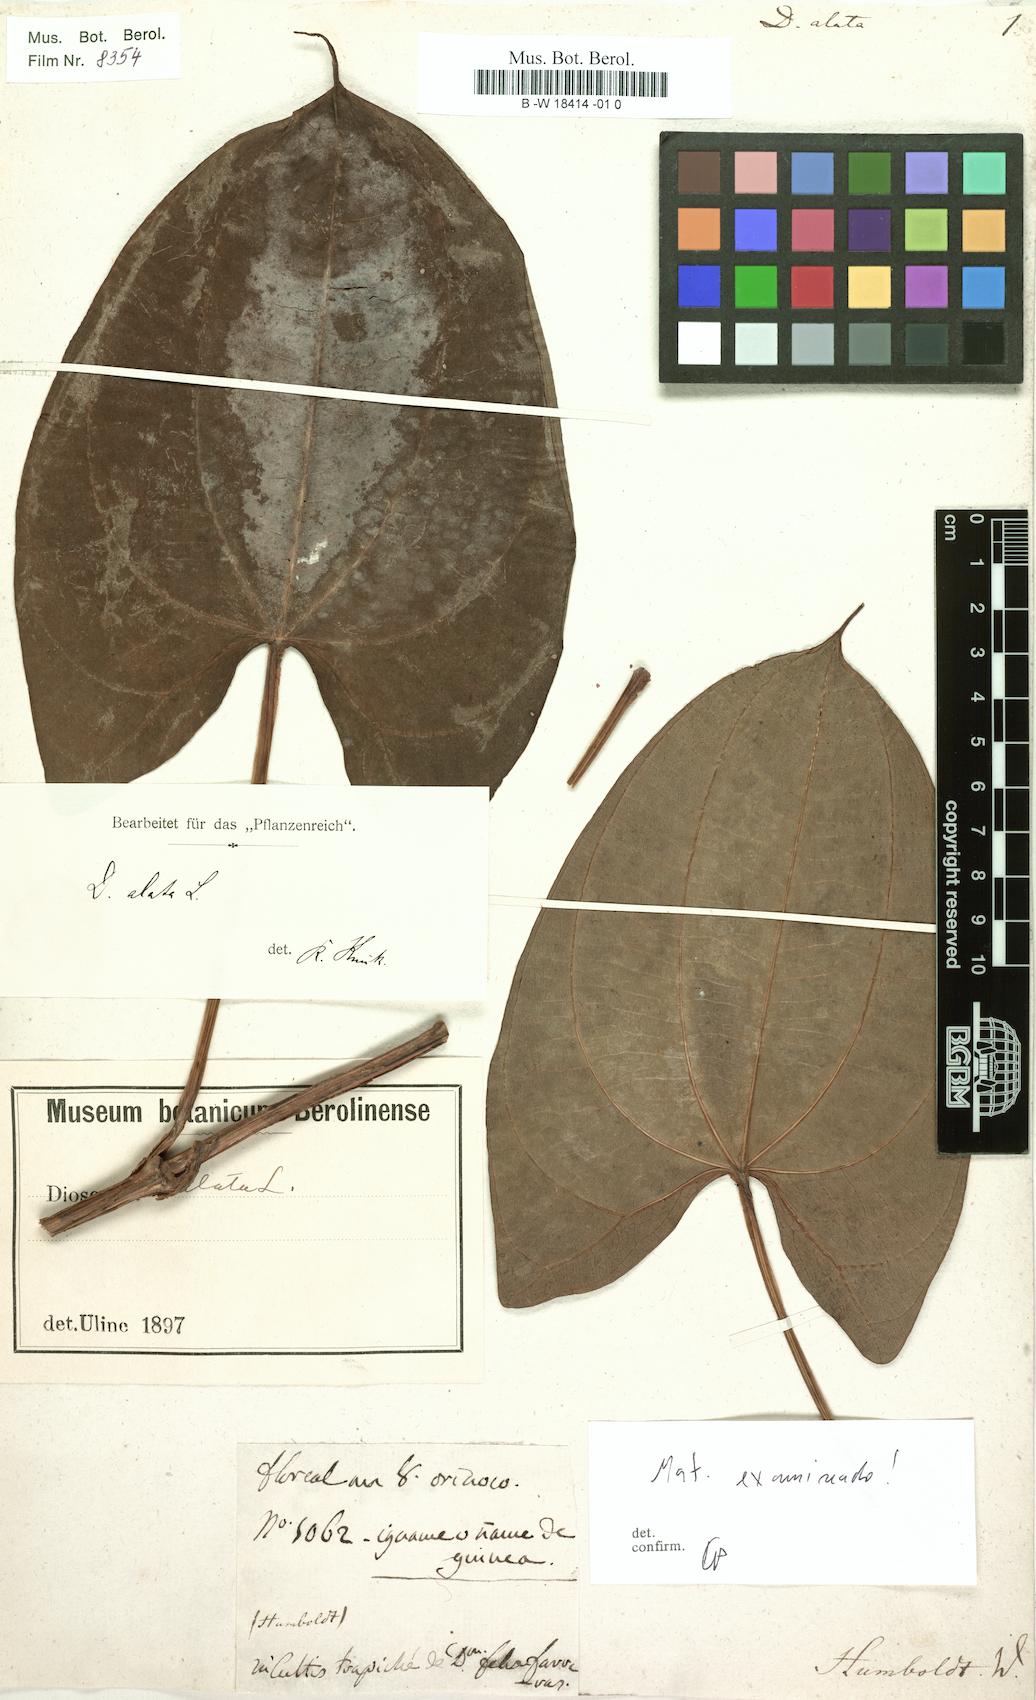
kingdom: Plantae
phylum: Tracheophyta
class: Liliopsida
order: Dioscoreales
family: Dioscoreaceae
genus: Dioscorea
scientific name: Dioscorea alata
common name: Water yam
